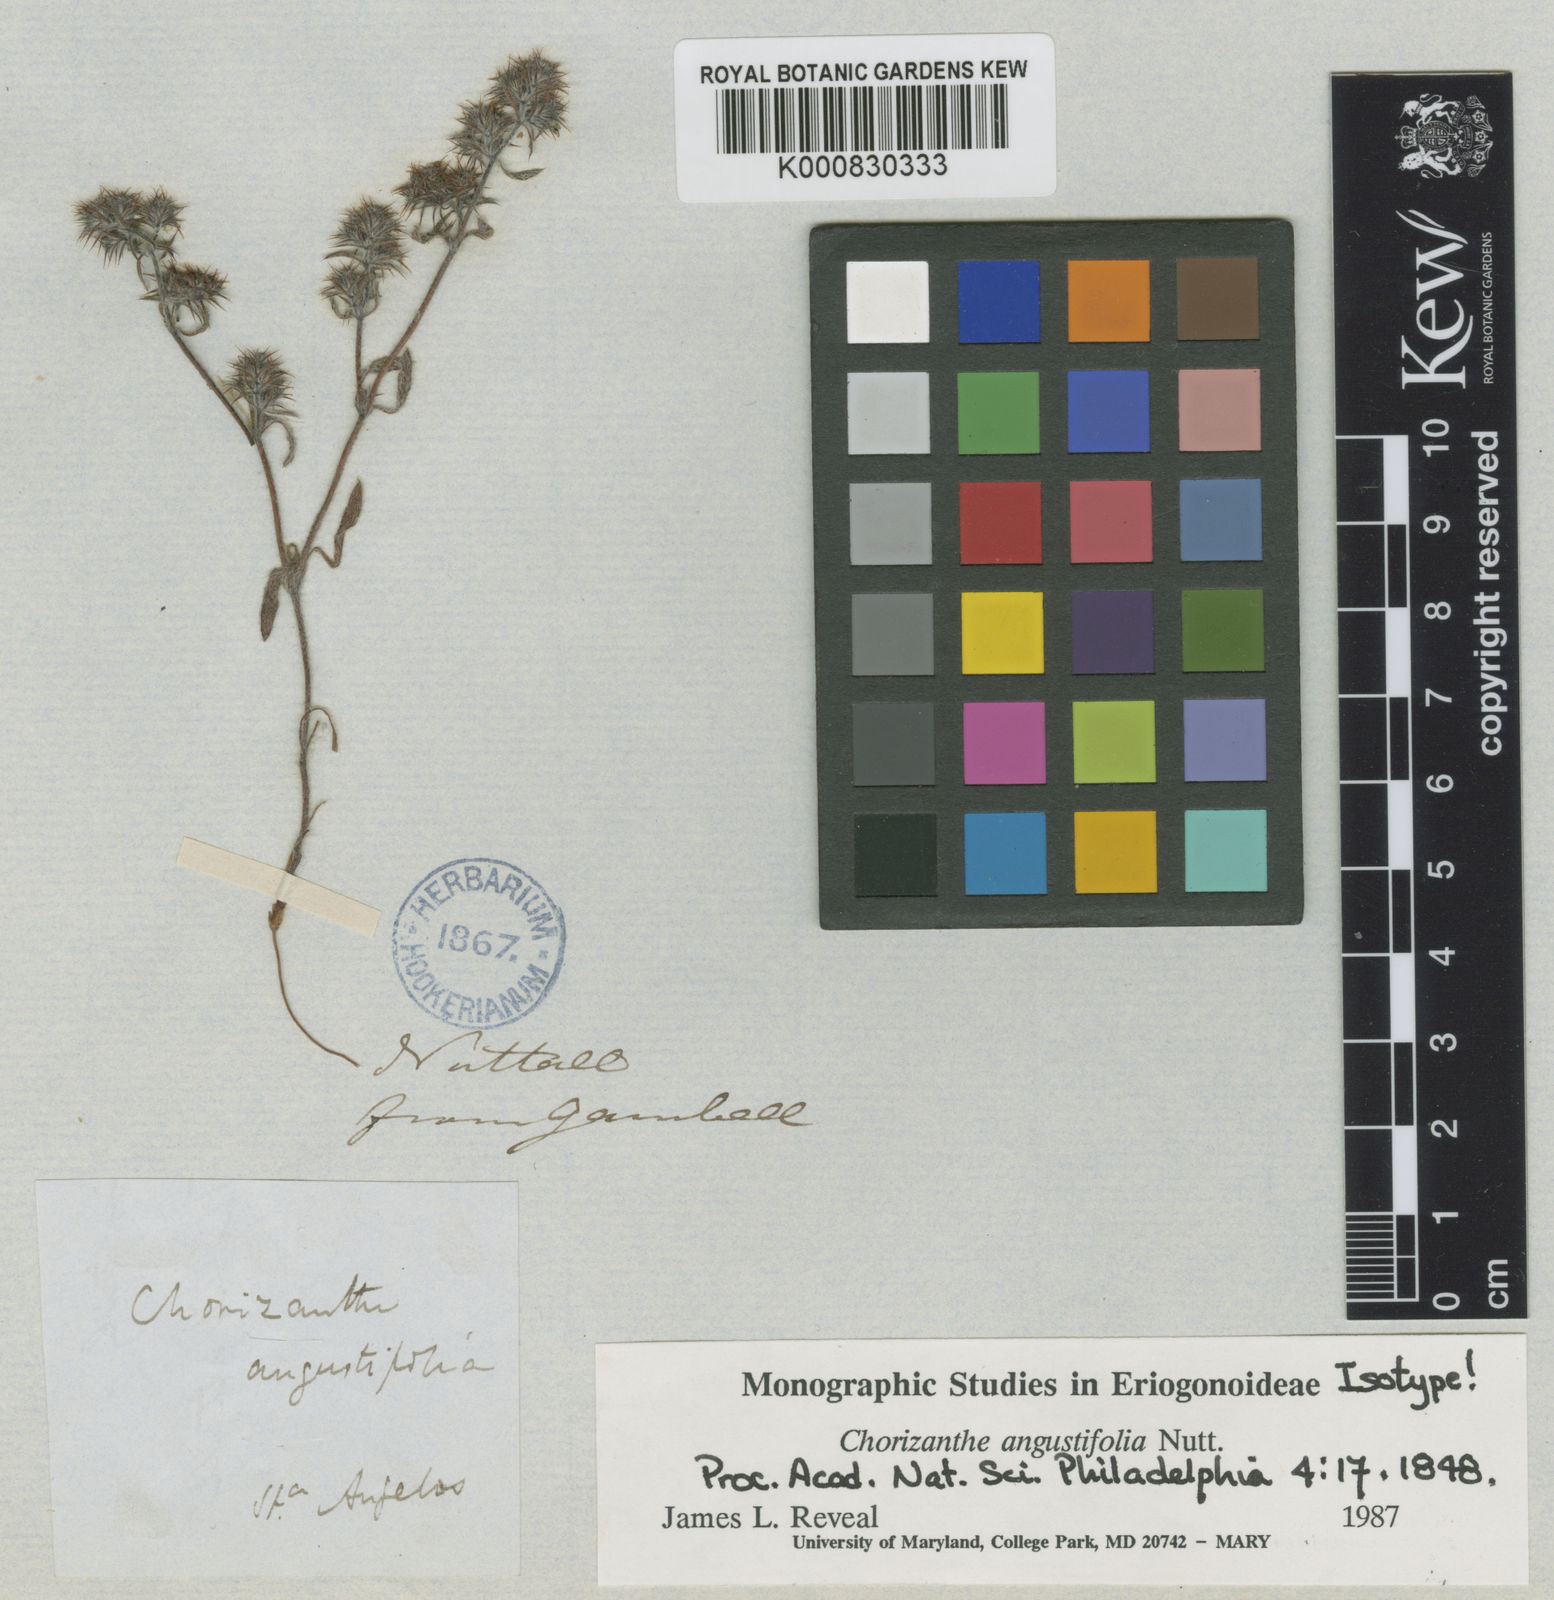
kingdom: Plantae
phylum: Tracheophyta
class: Magnoliopsida
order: Caryophyllales
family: Polygonaceae
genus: Chorizanthe
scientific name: Chorizanthe pungens
